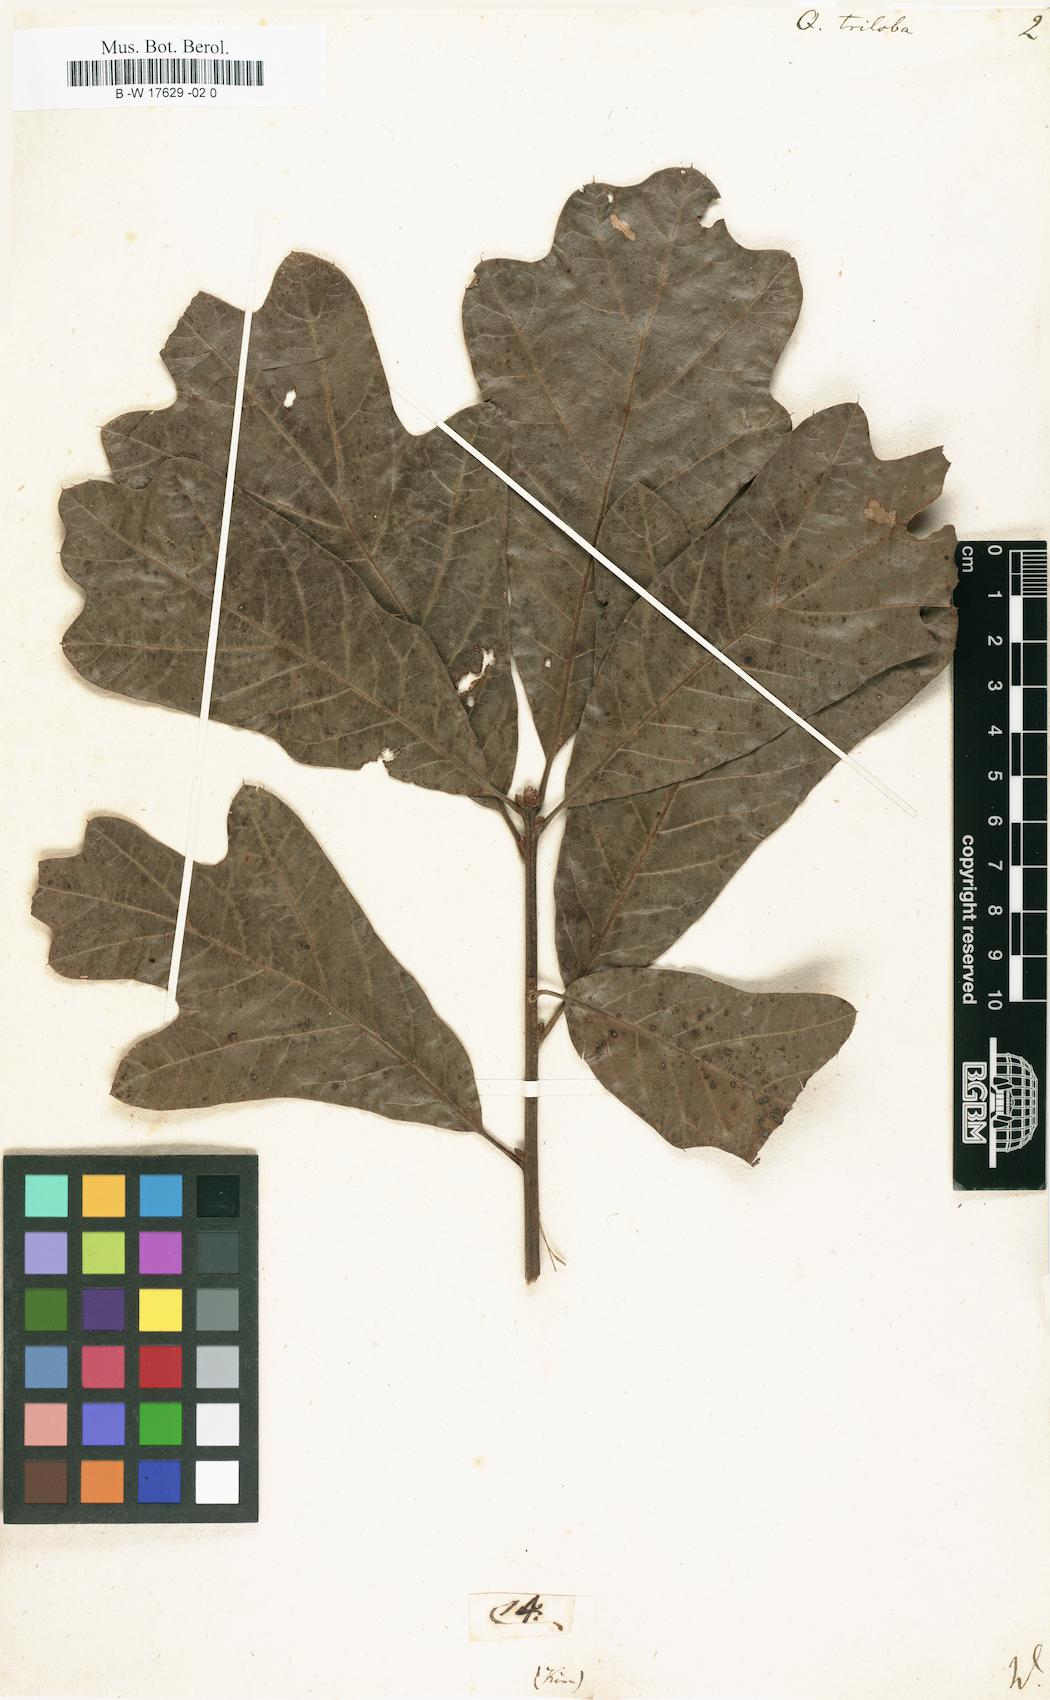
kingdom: Plantae
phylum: Tracheophyta
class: Magnoliopsida
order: Fagales
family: Fagaceae
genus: Quercus
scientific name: Quercus falcata
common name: Southern red oak
